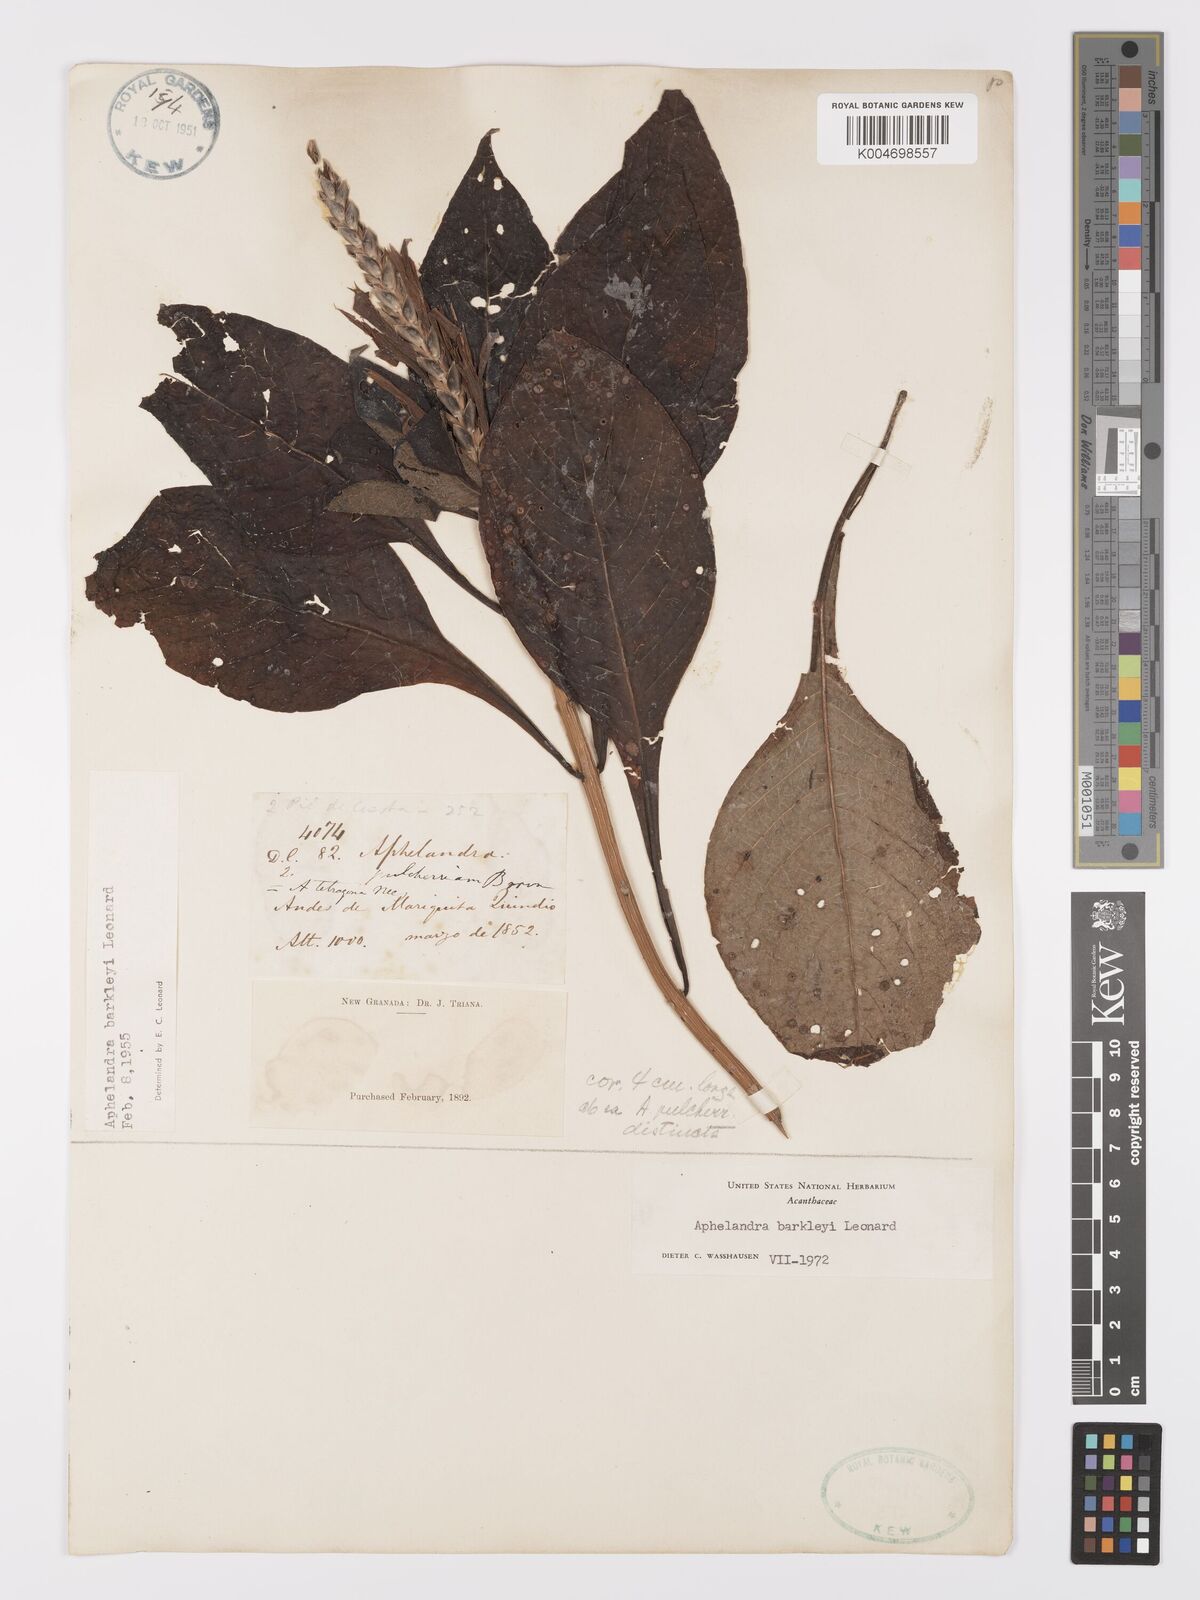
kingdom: Plantae
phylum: Tracheophyta
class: Magnoliopsida
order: Lamiales
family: Acanthaceae
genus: Aphelandra
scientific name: Aphelandra barkleyi
